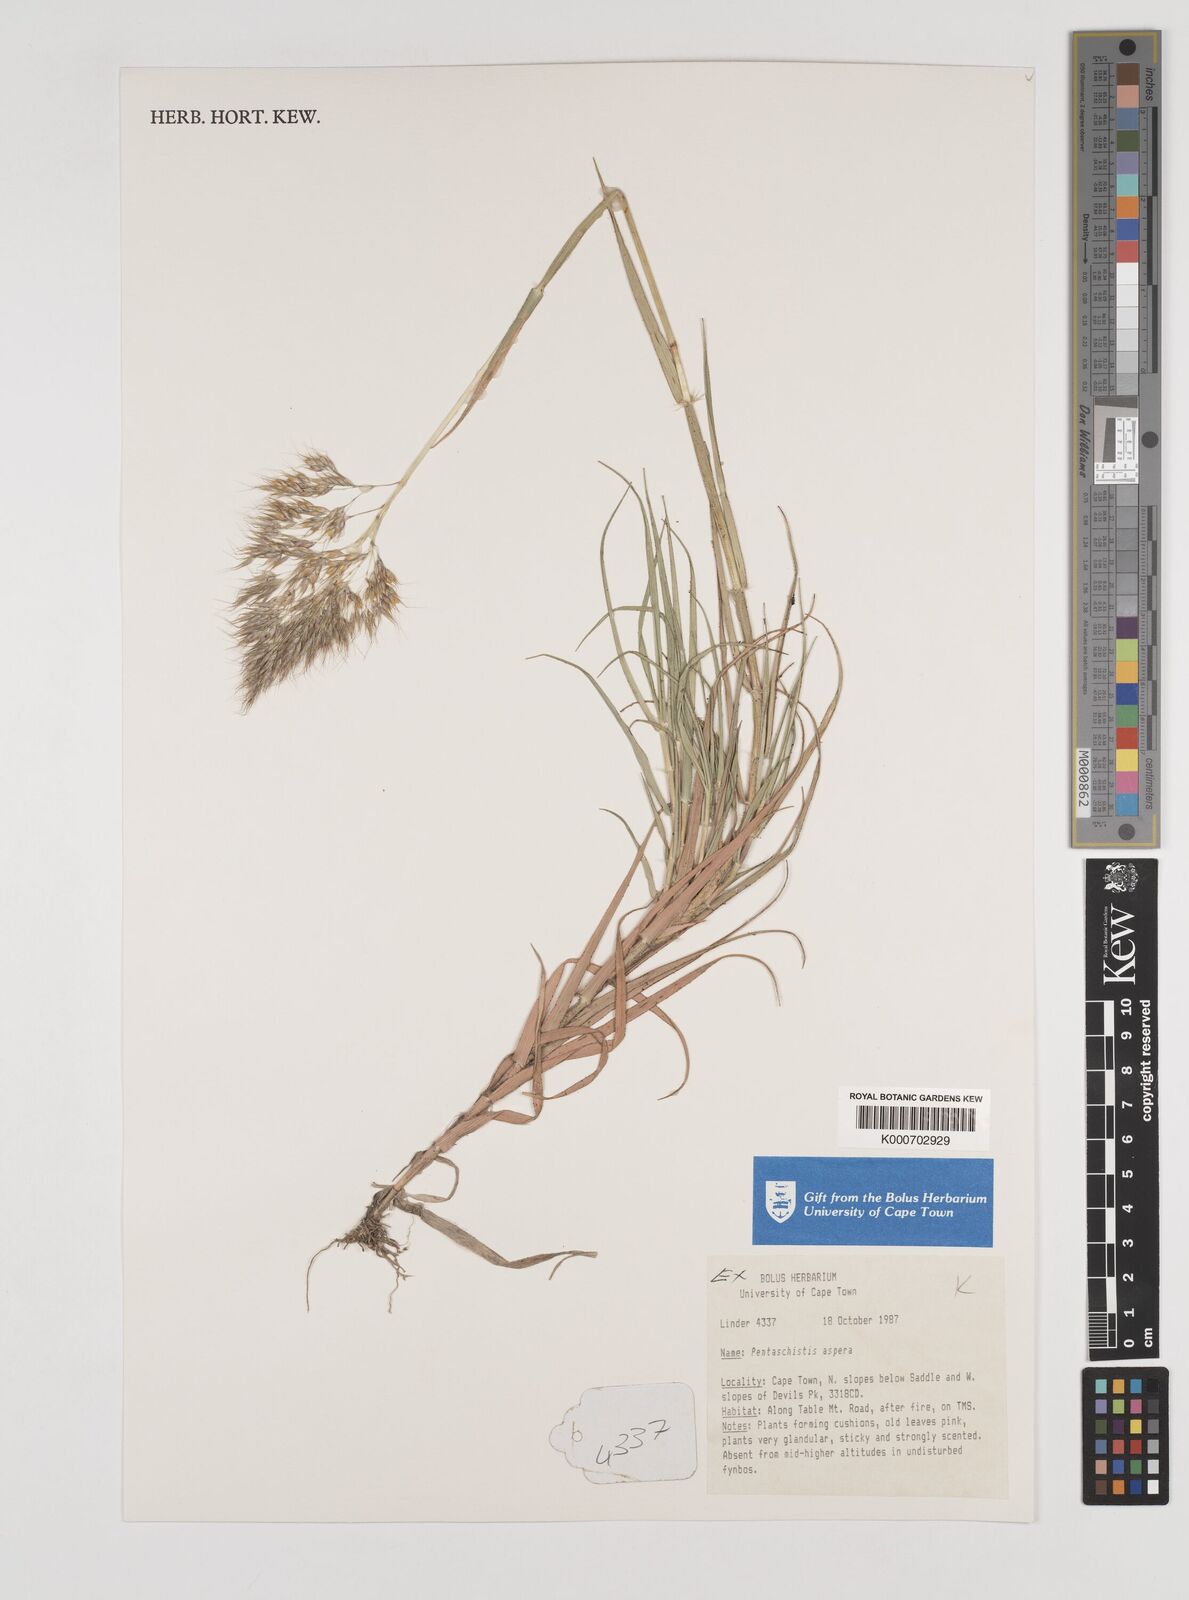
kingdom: Plantae
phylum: Tracheophyta
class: Liliopsida
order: Poales
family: Poaceae
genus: Pentameris
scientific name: Pentameris aspera
